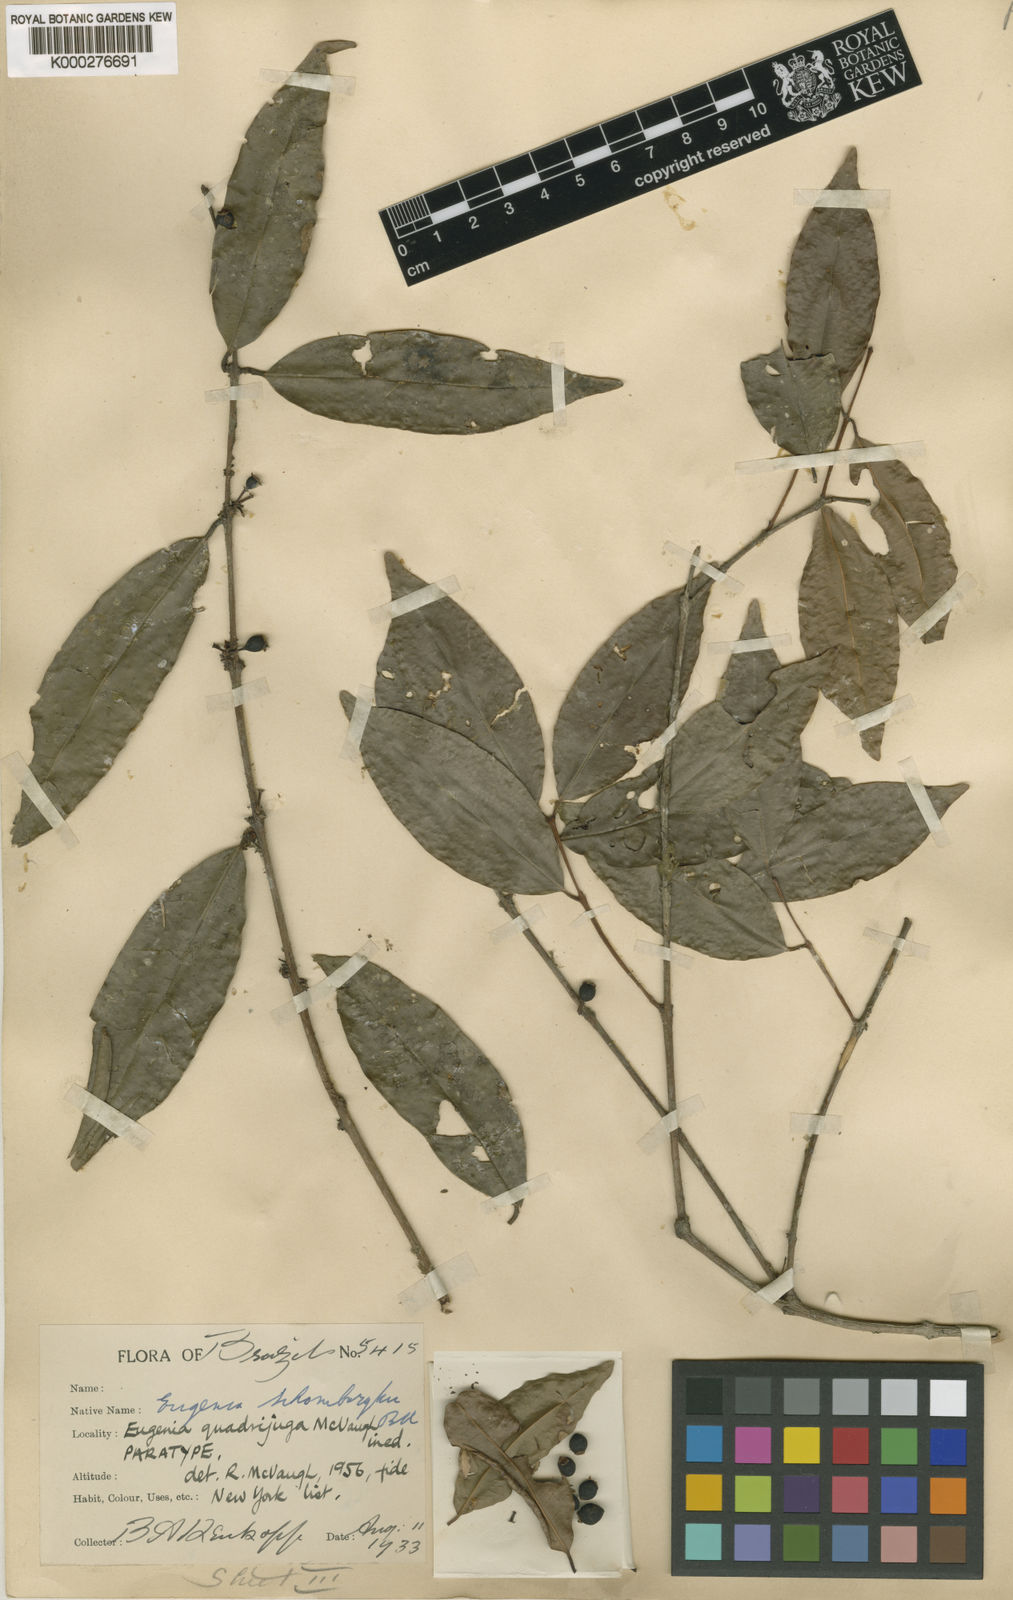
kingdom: Plantae
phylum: Tracheophyta
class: Magnoliopsida
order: Myrtales
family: Myrtaceae
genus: Eugenia
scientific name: Eugenia quadrijuga
